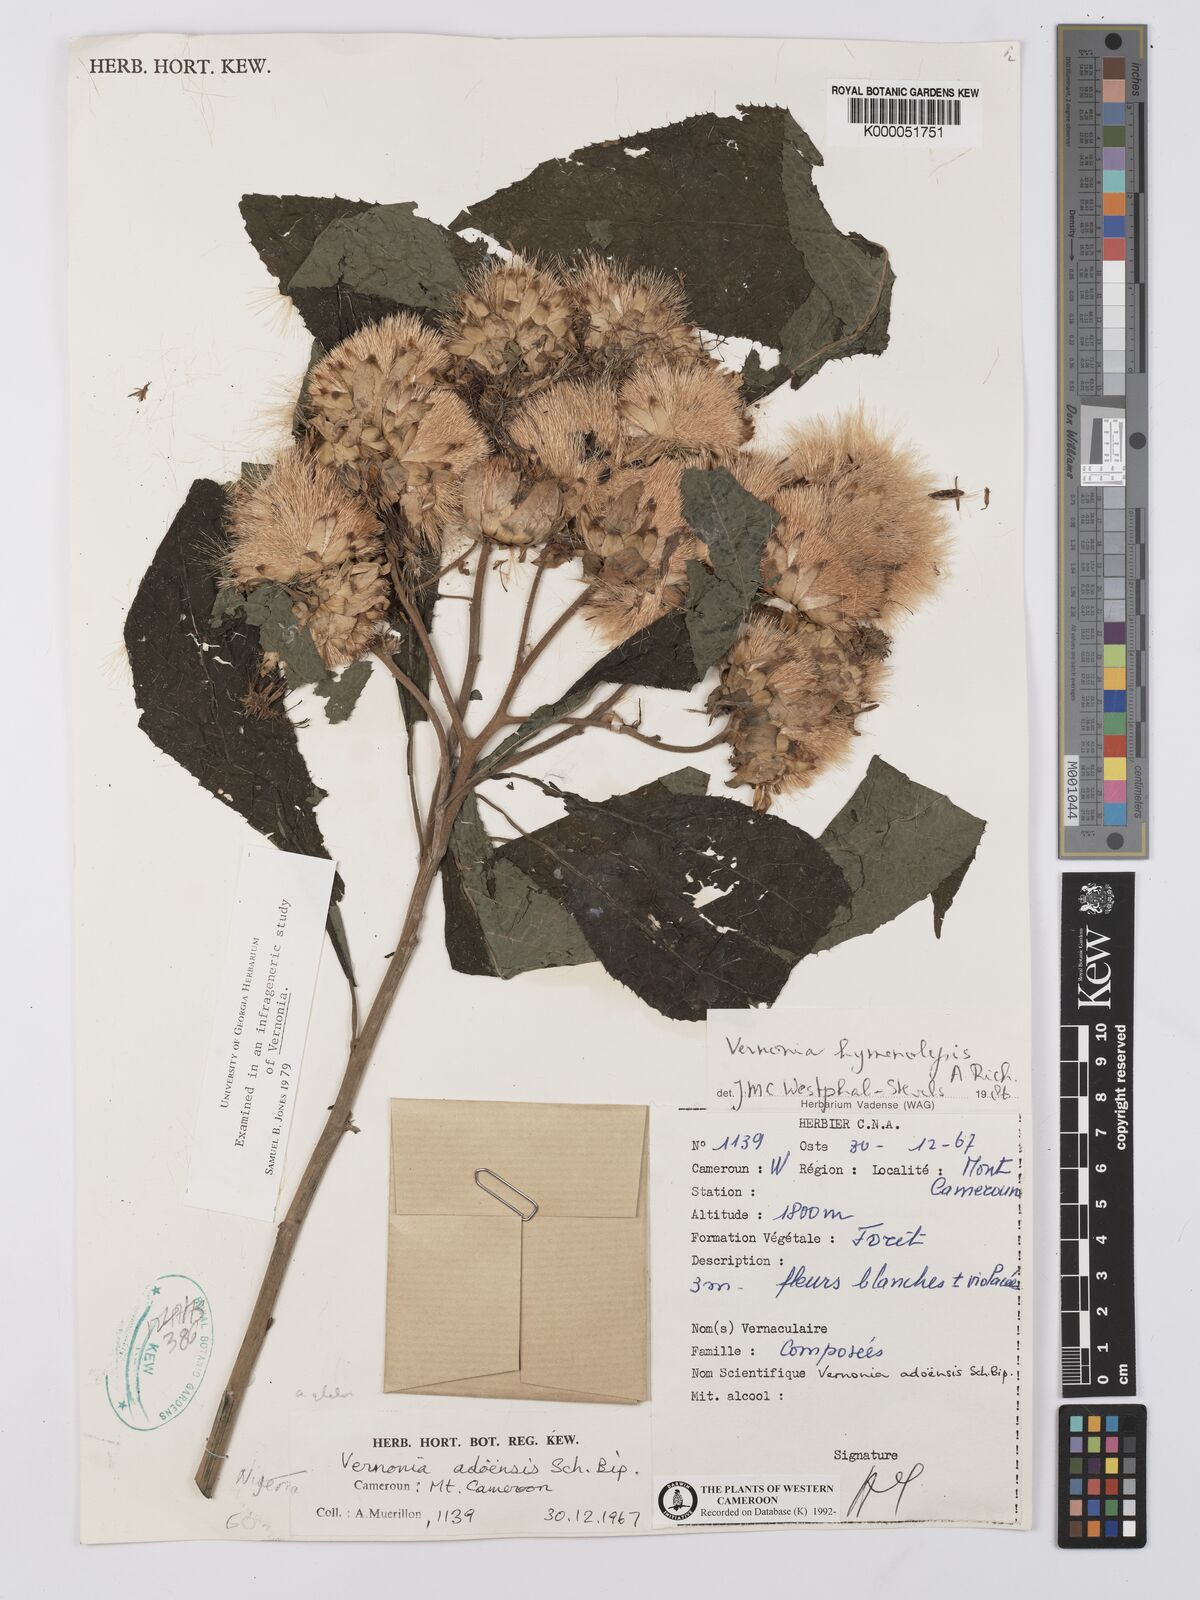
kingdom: Plantae
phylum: Tracheophyta
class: Magnoliopsida
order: Asterales
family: Asteraceae
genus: Baccharoides
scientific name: Baccharoides hymenolepis
